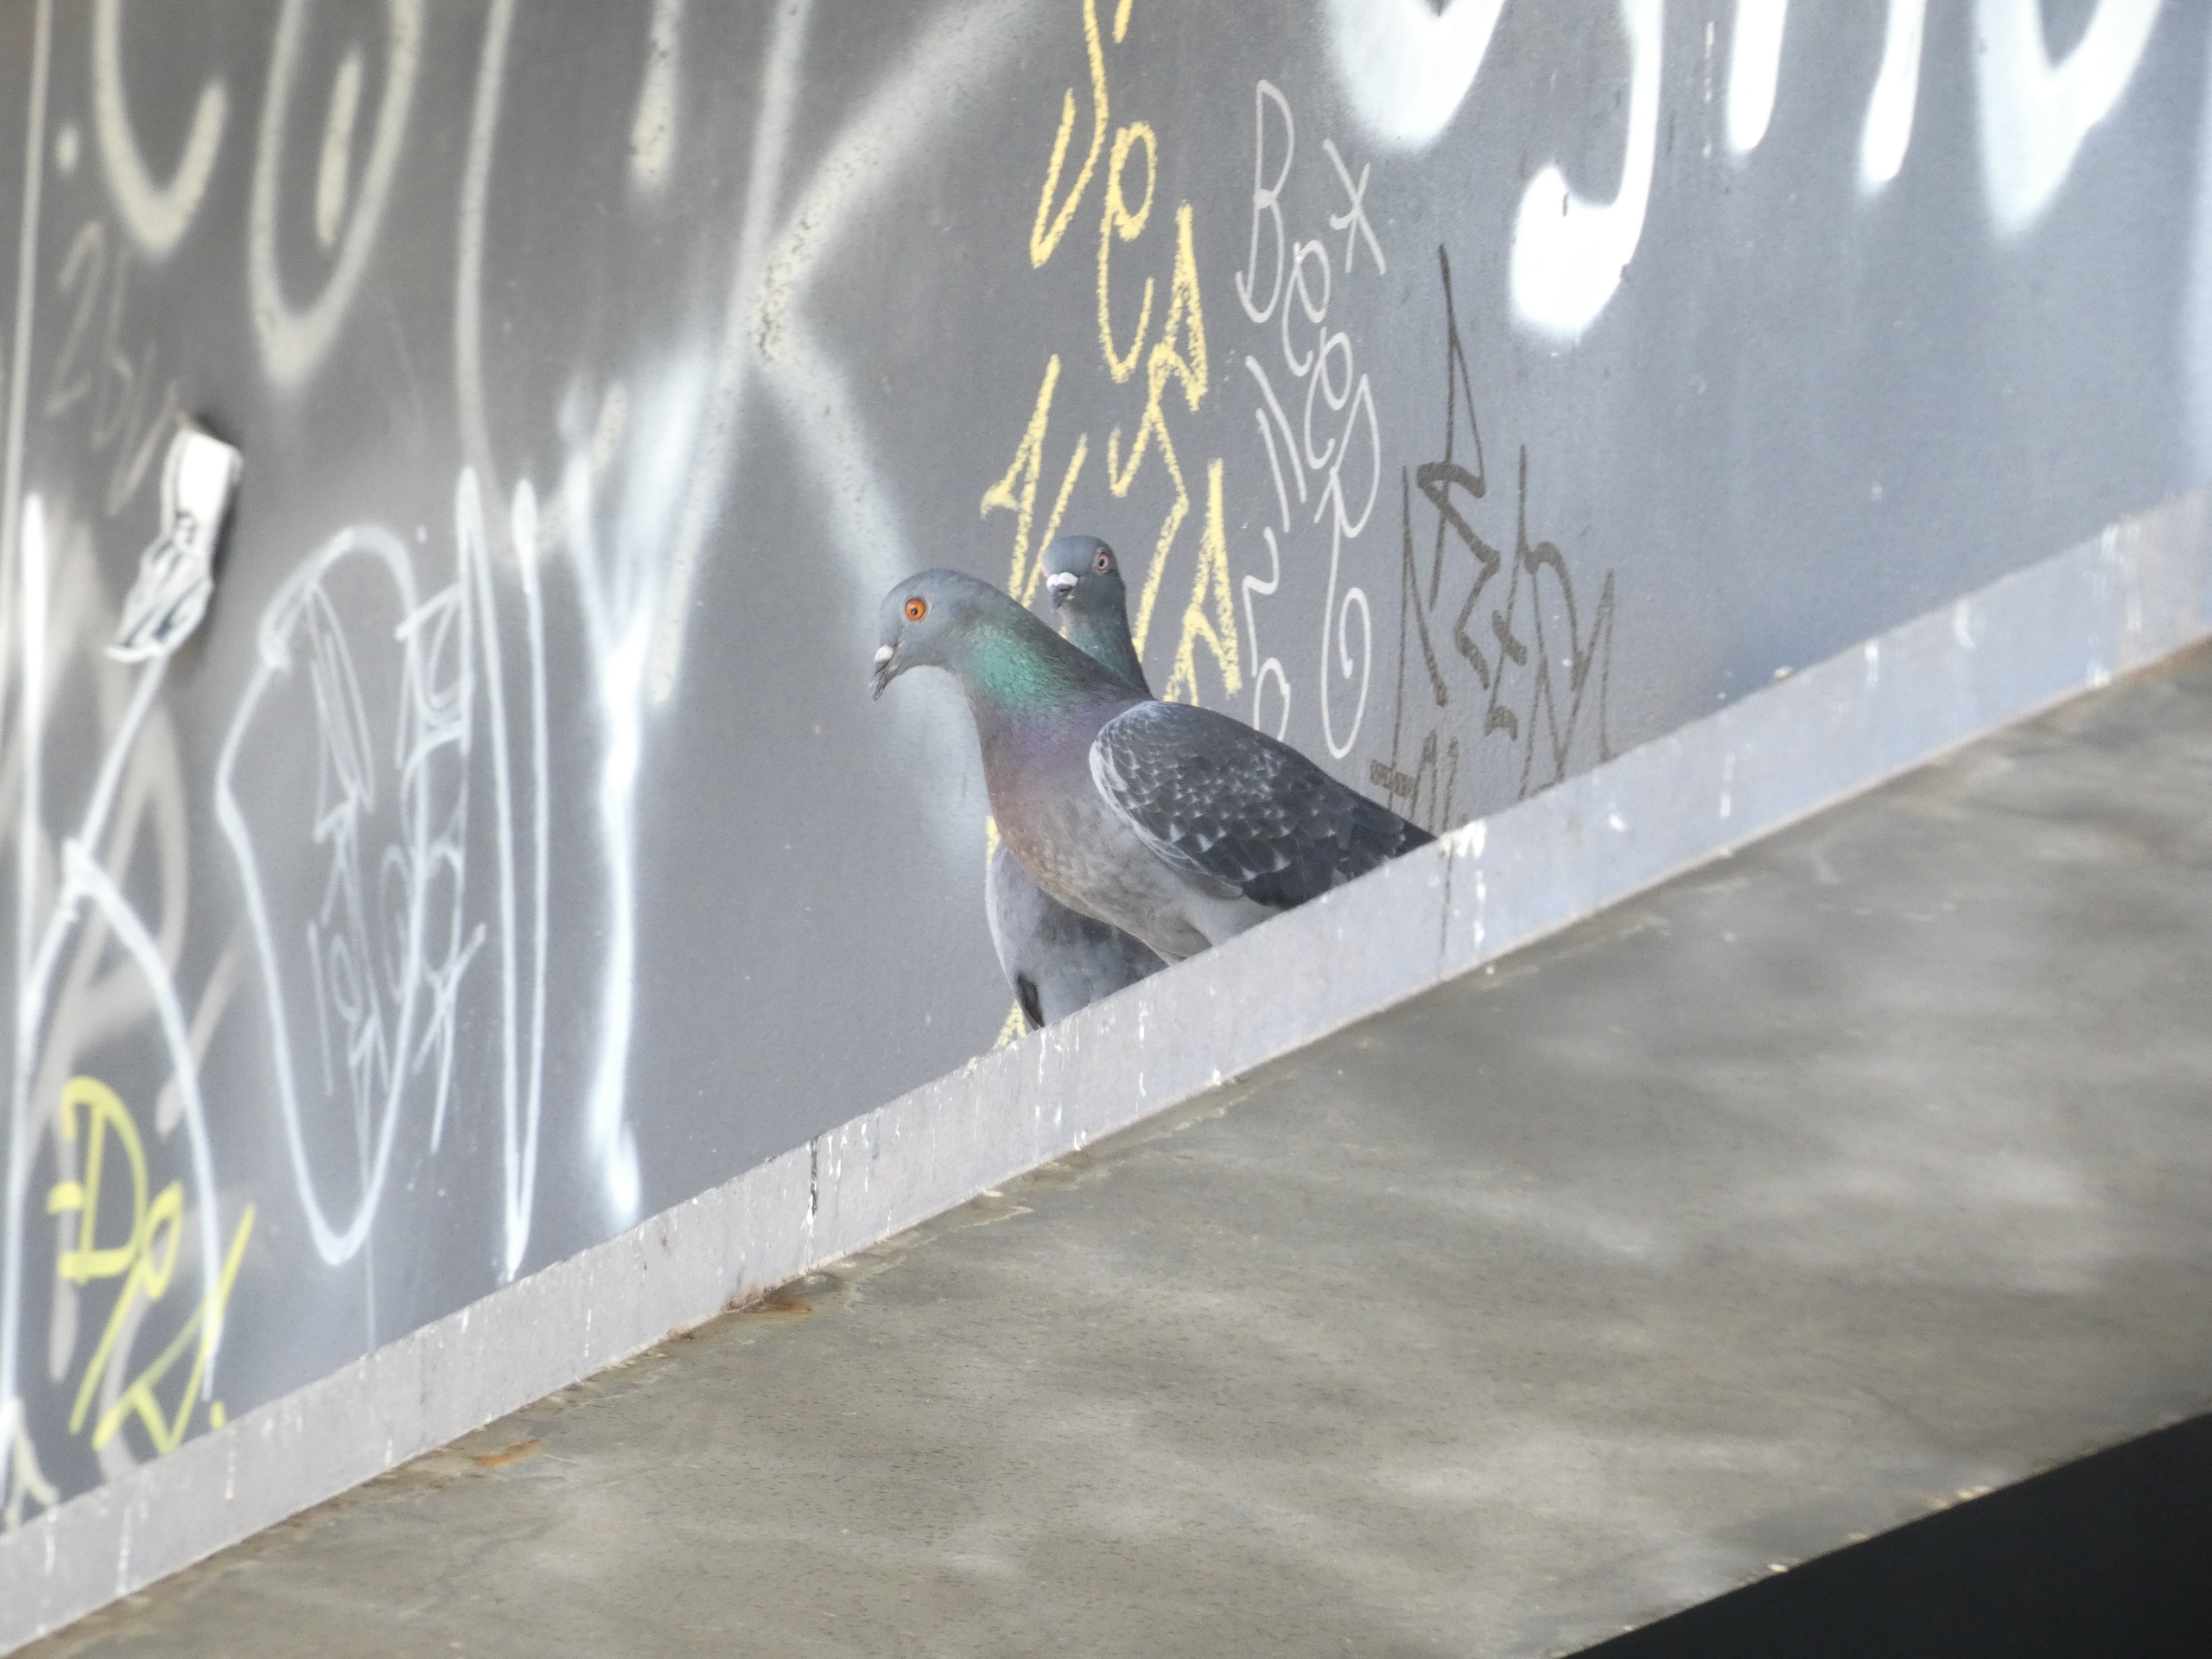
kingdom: Animalia
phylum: Chordata
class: Aves
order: Columbiformes
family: Columbidae
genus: Columba
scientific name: Columba livia
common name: Tamdue
